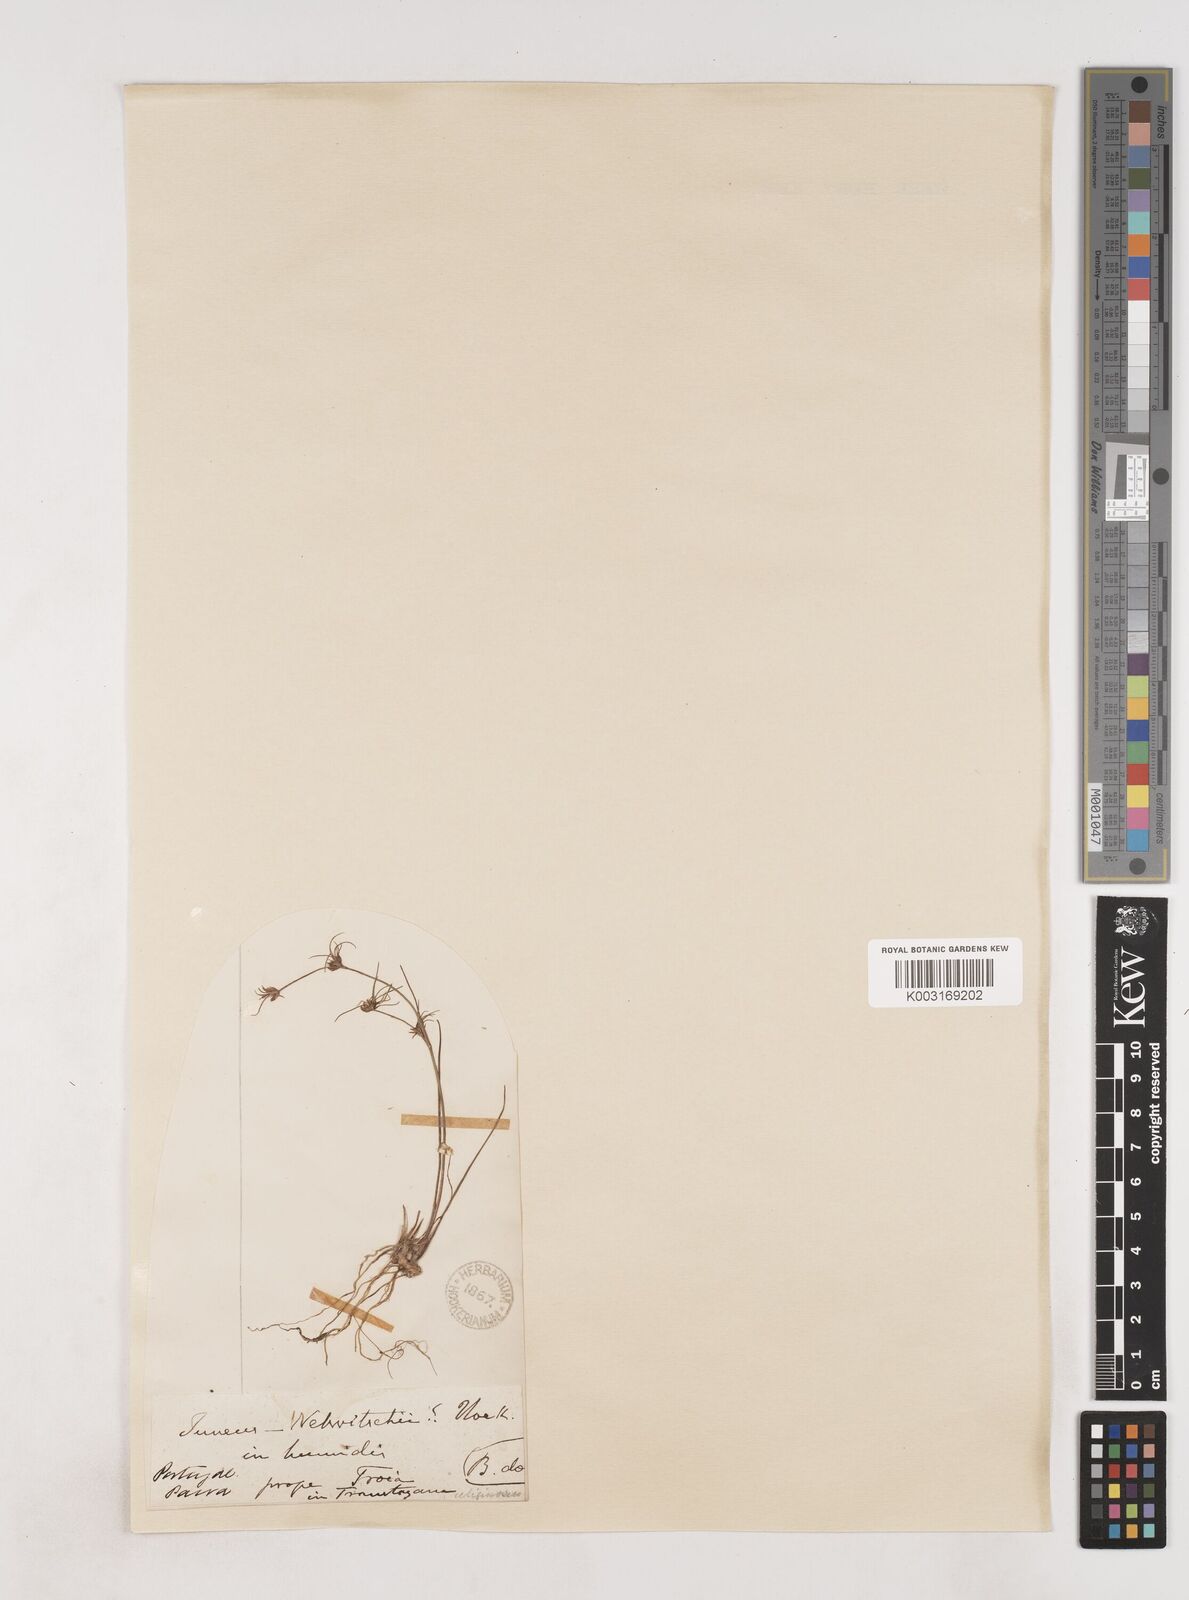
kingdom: Plantae
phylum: Tracheophyta
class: Liliopsida
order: Poales
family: Juncaceae
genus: Juncus
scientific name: Juncus bulbosus
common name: Bulbous rush
